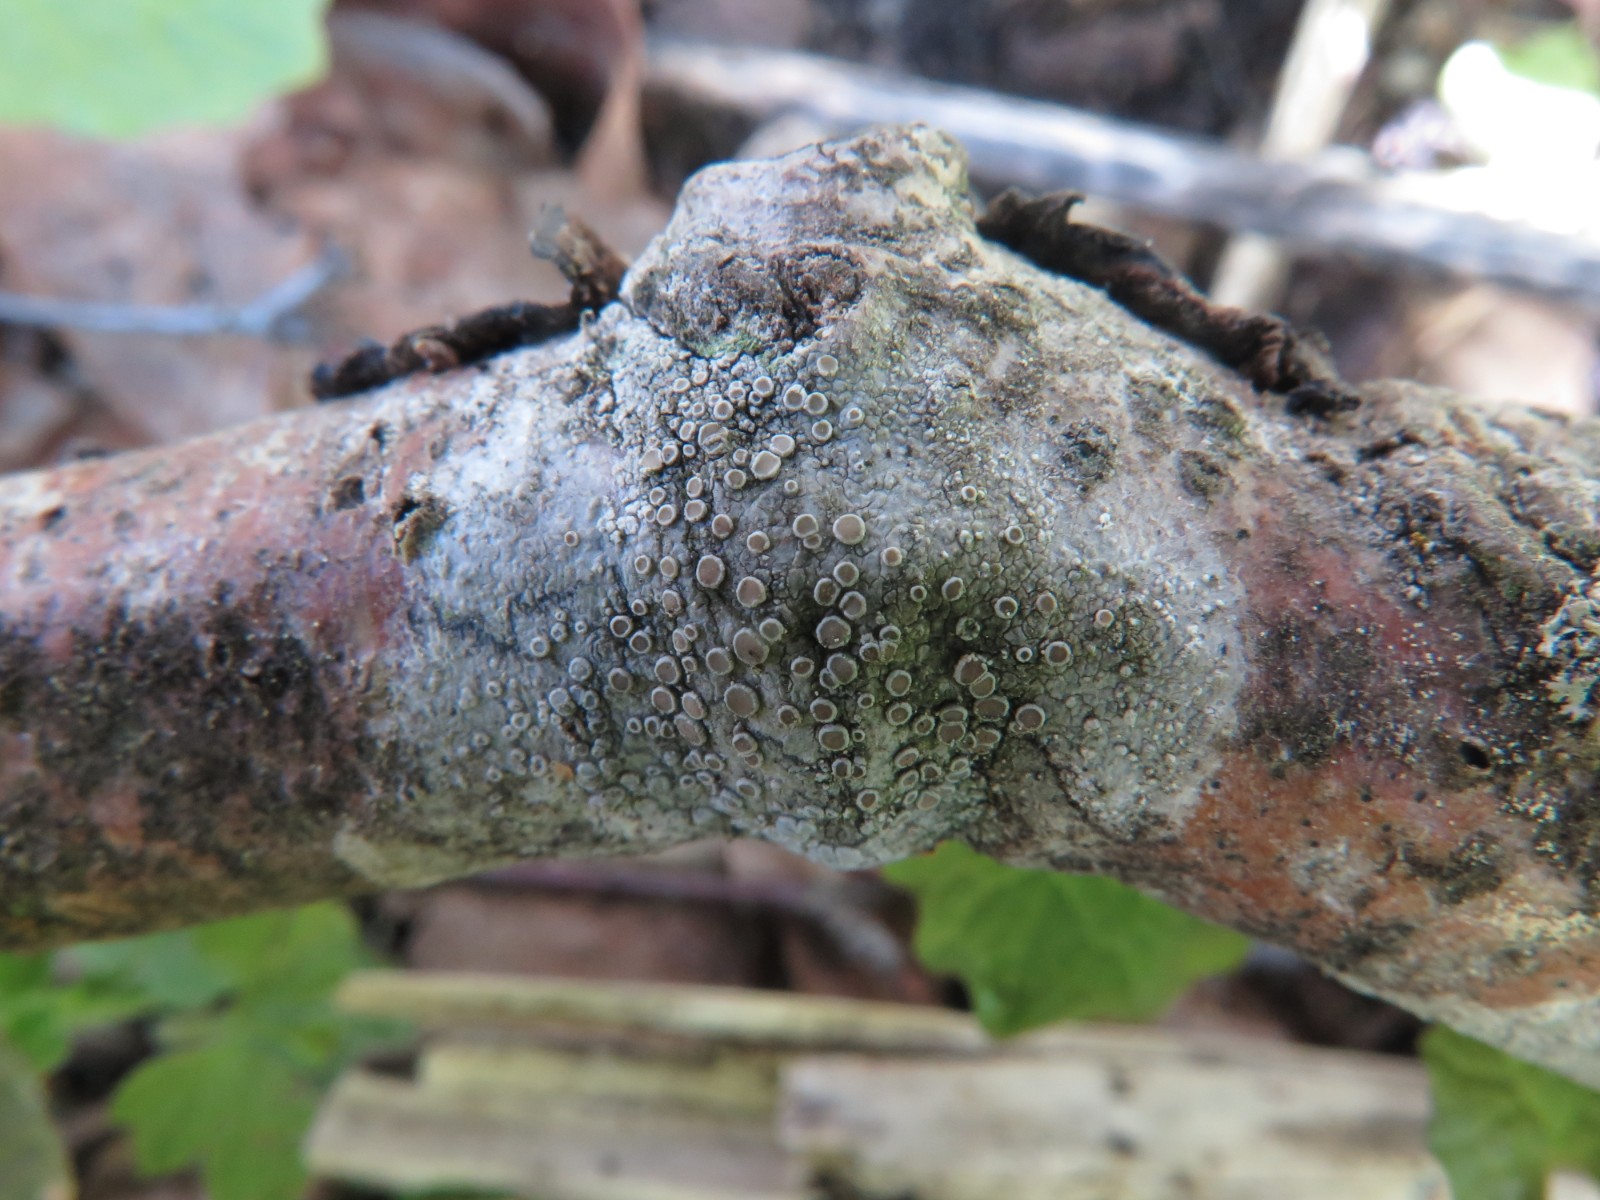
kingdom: Fungi
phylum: Ascomycota
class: Lecanoromycetes
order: Lecanorales
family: Lecanoraceae
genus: Lecanora
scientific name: Lecanora chlarotera
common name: brun kantskivelav
